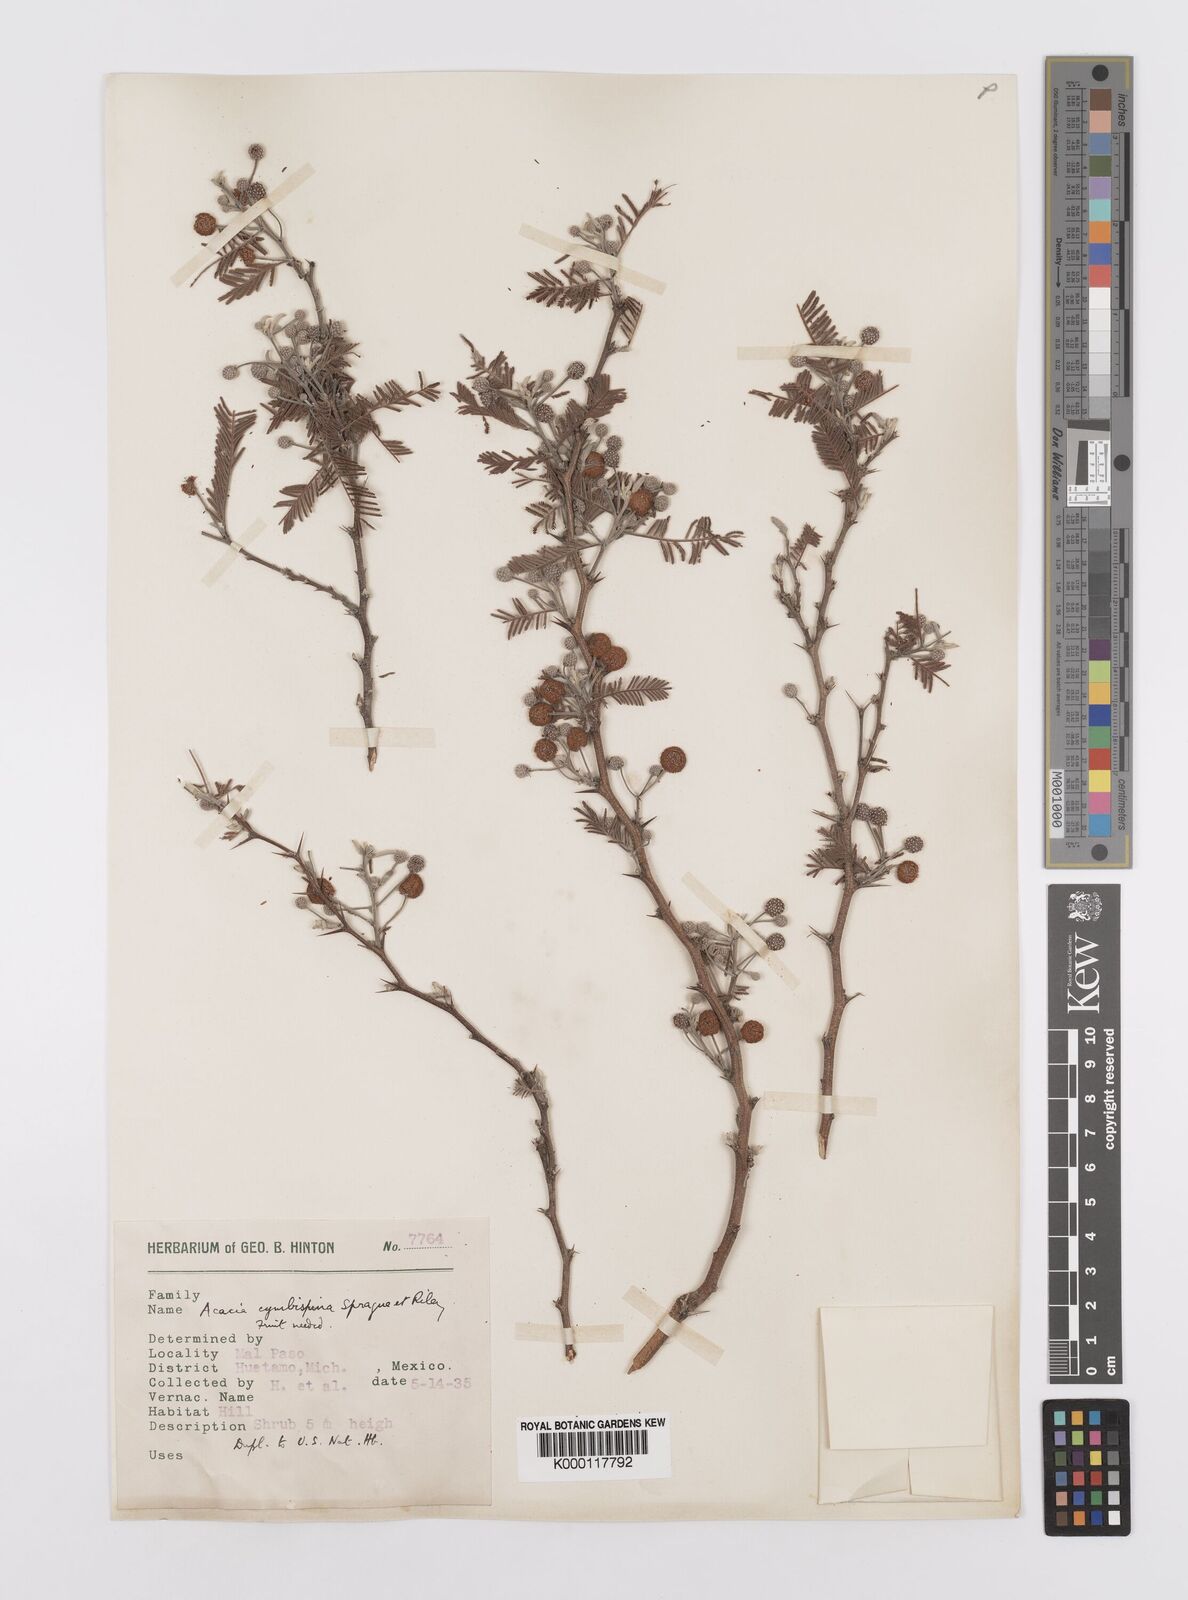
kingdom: Plantae
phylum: Tracheophyta
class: Magnoliopsida
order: Fabales
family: Fabaceae
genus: Vachellia
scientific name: Vachellia campeachiana
